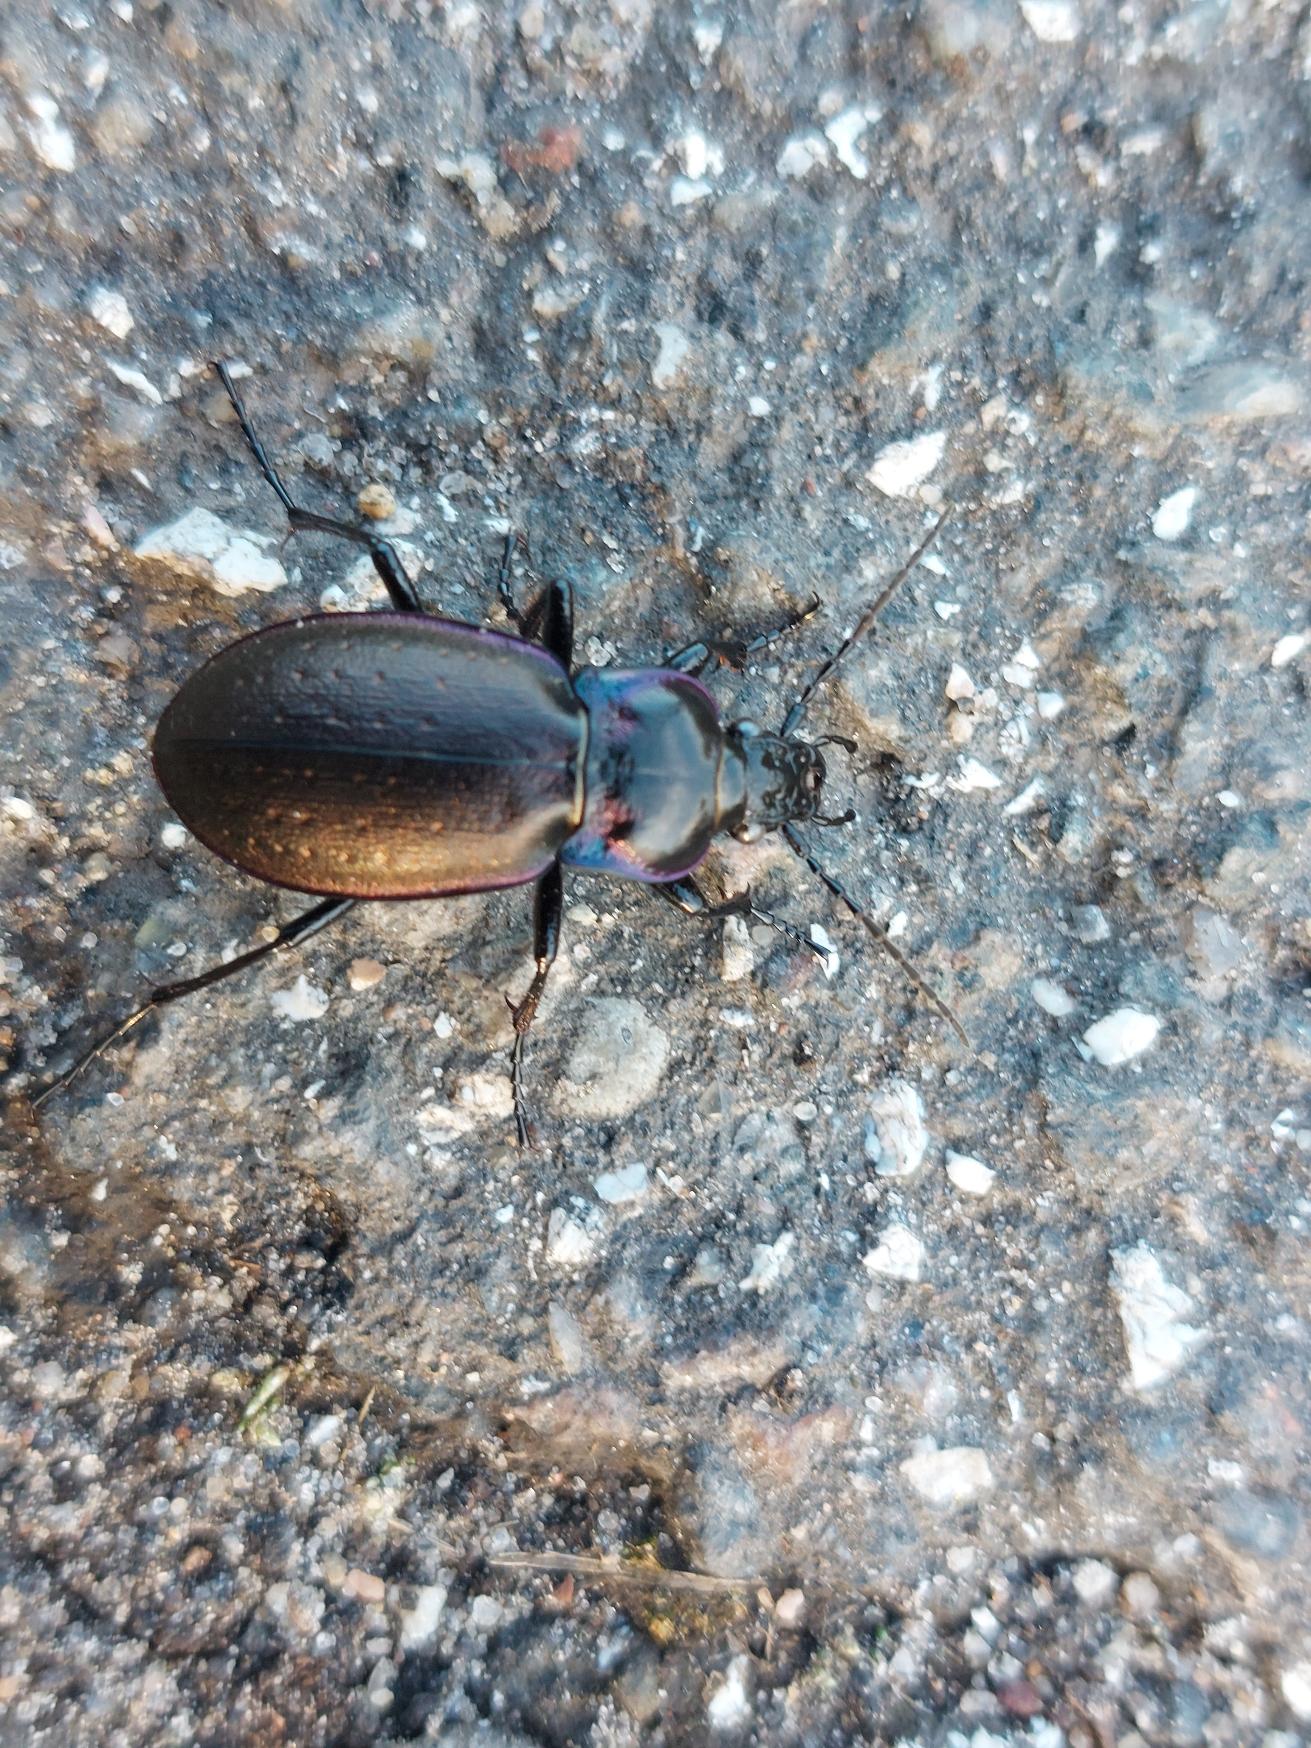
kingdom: Animalia
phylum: Arthropoda
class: Insecta
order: Coleoptera
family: Carabidae
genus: Carabus
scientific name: Carabus nemoralis
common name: Kratløber
